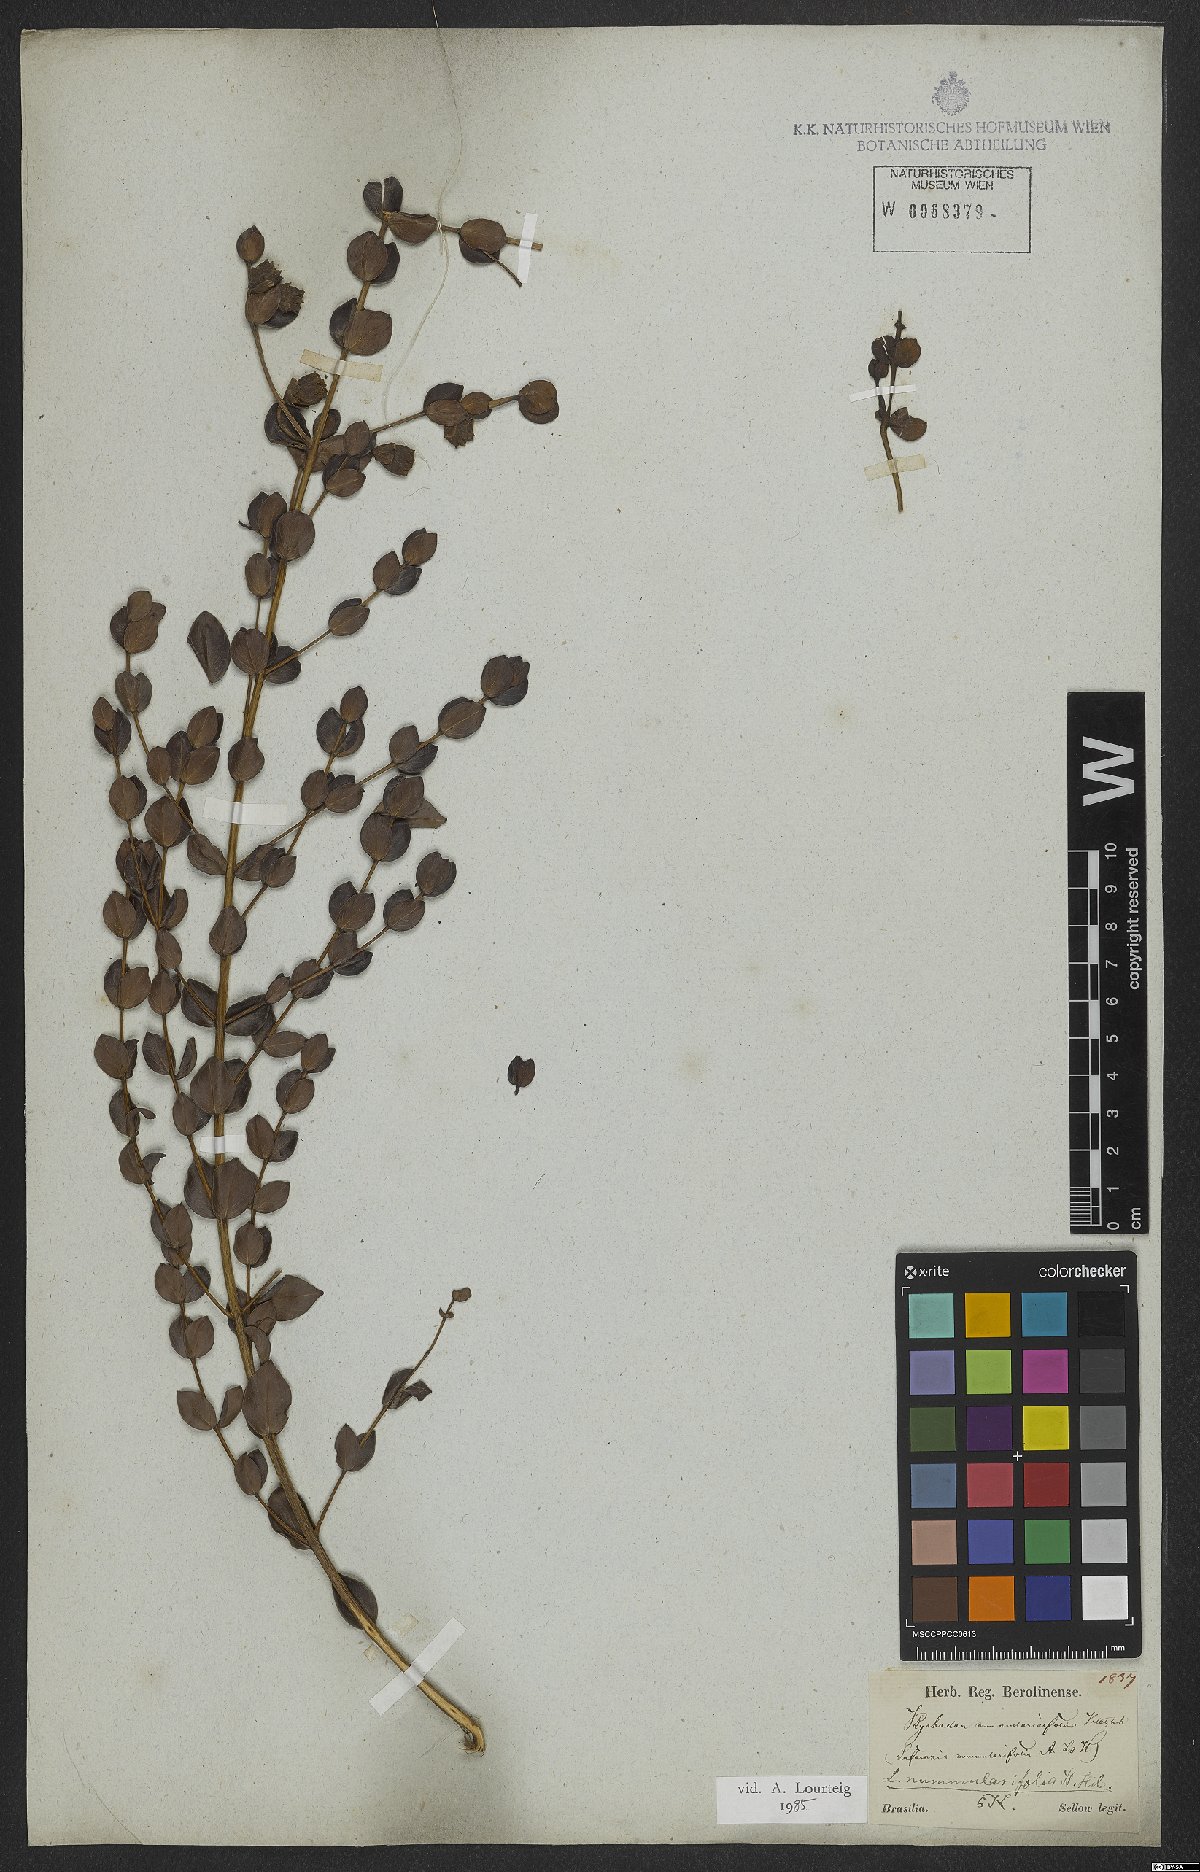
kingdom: Plantae
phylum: Tracheophyta
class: Magnoliopsida
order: Myrtales
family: Lythraceae
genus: Lafoensia
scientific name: Lafoensia nummularifolia
